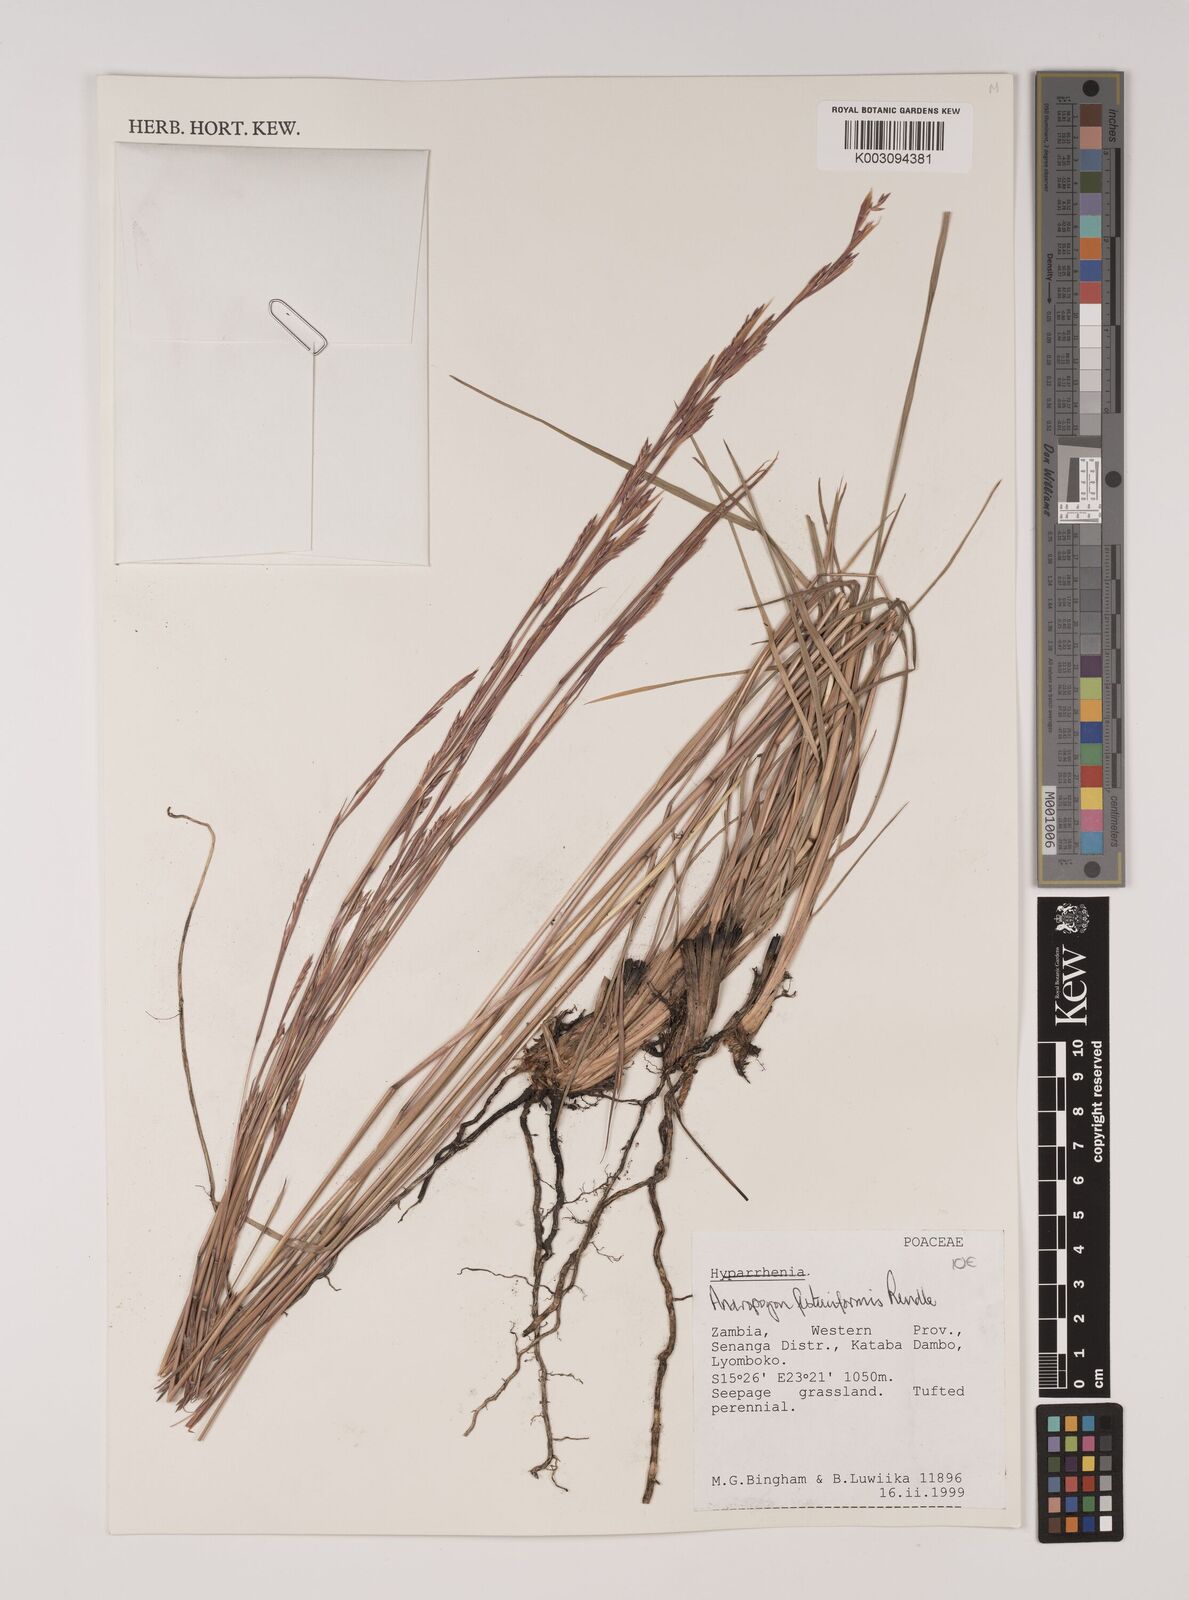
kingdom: Plantae
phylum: Tracheophyta
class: Liliopsida
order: Poales
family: Poaceae
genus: Andropogon
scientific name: Andropogon festuciformis
